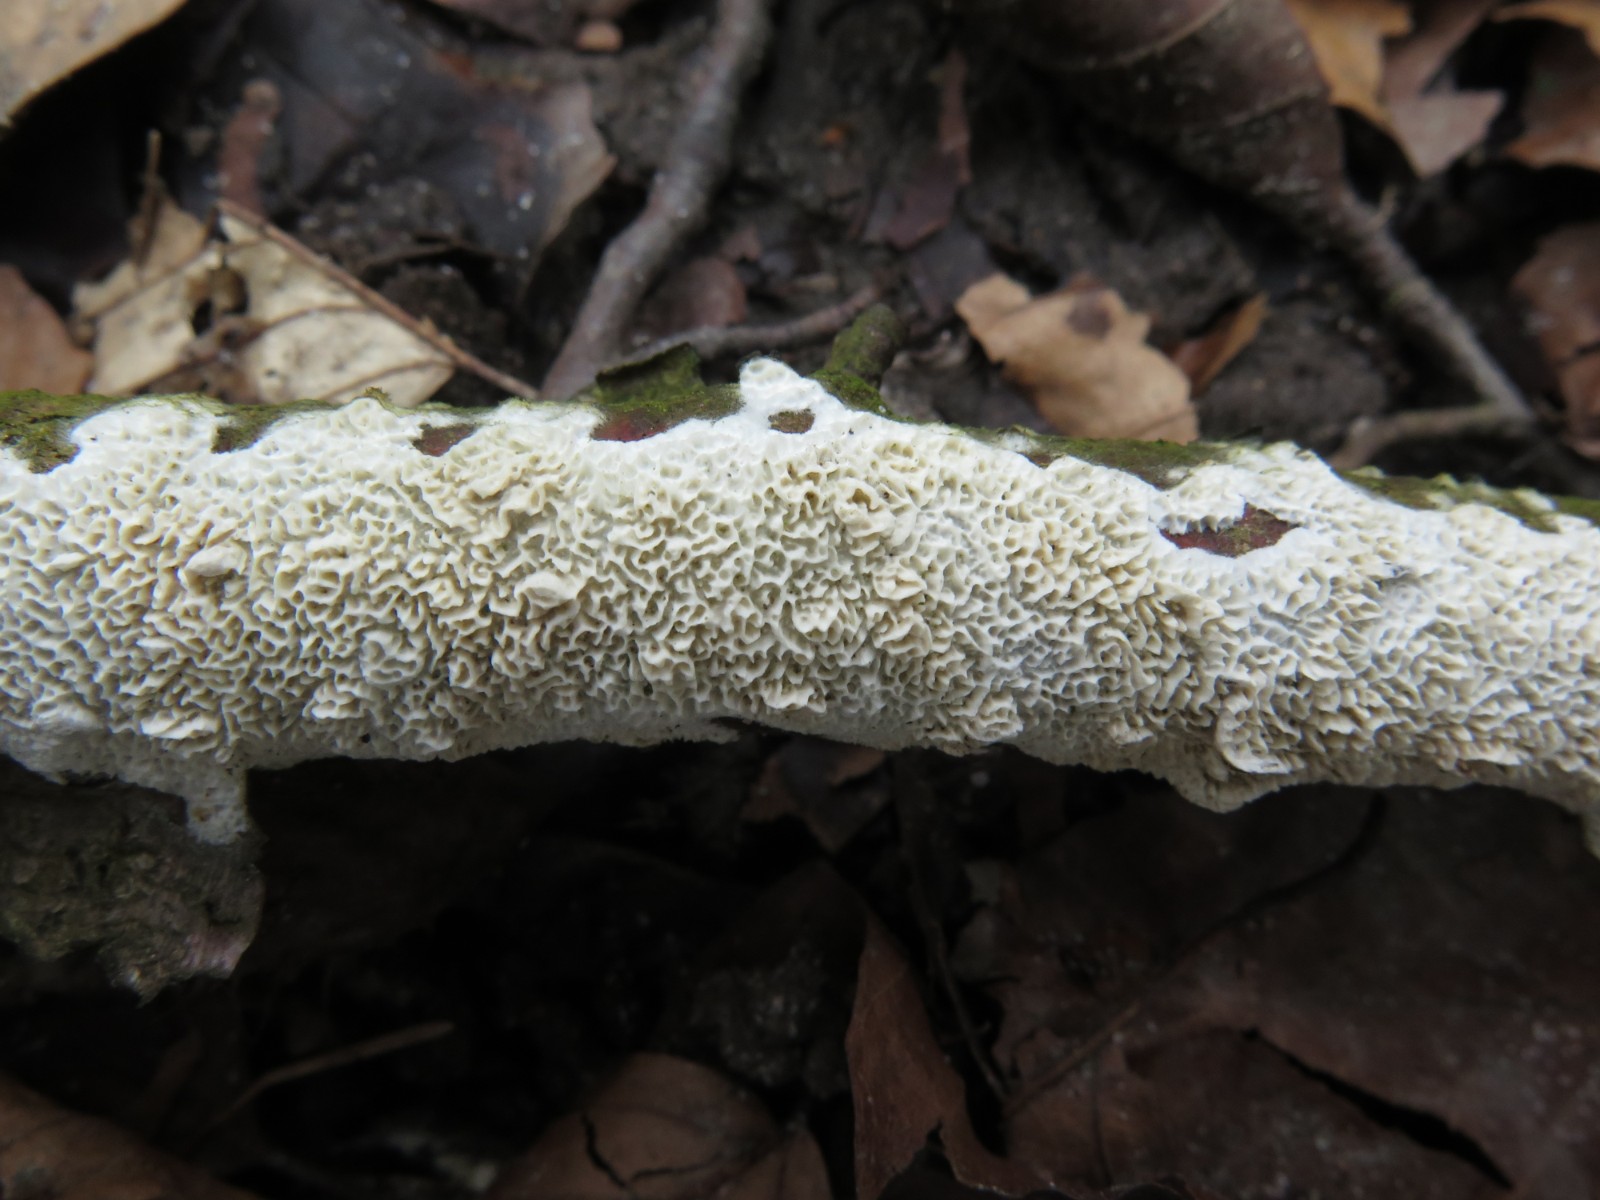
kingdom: Fungi
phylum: Basidiomycota
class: Agaricomycetes
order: Hymenochaetales
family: Schizoporaceae
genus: Schizopora
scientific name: Schizopora paradoxa
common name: hvid tandsvamp
